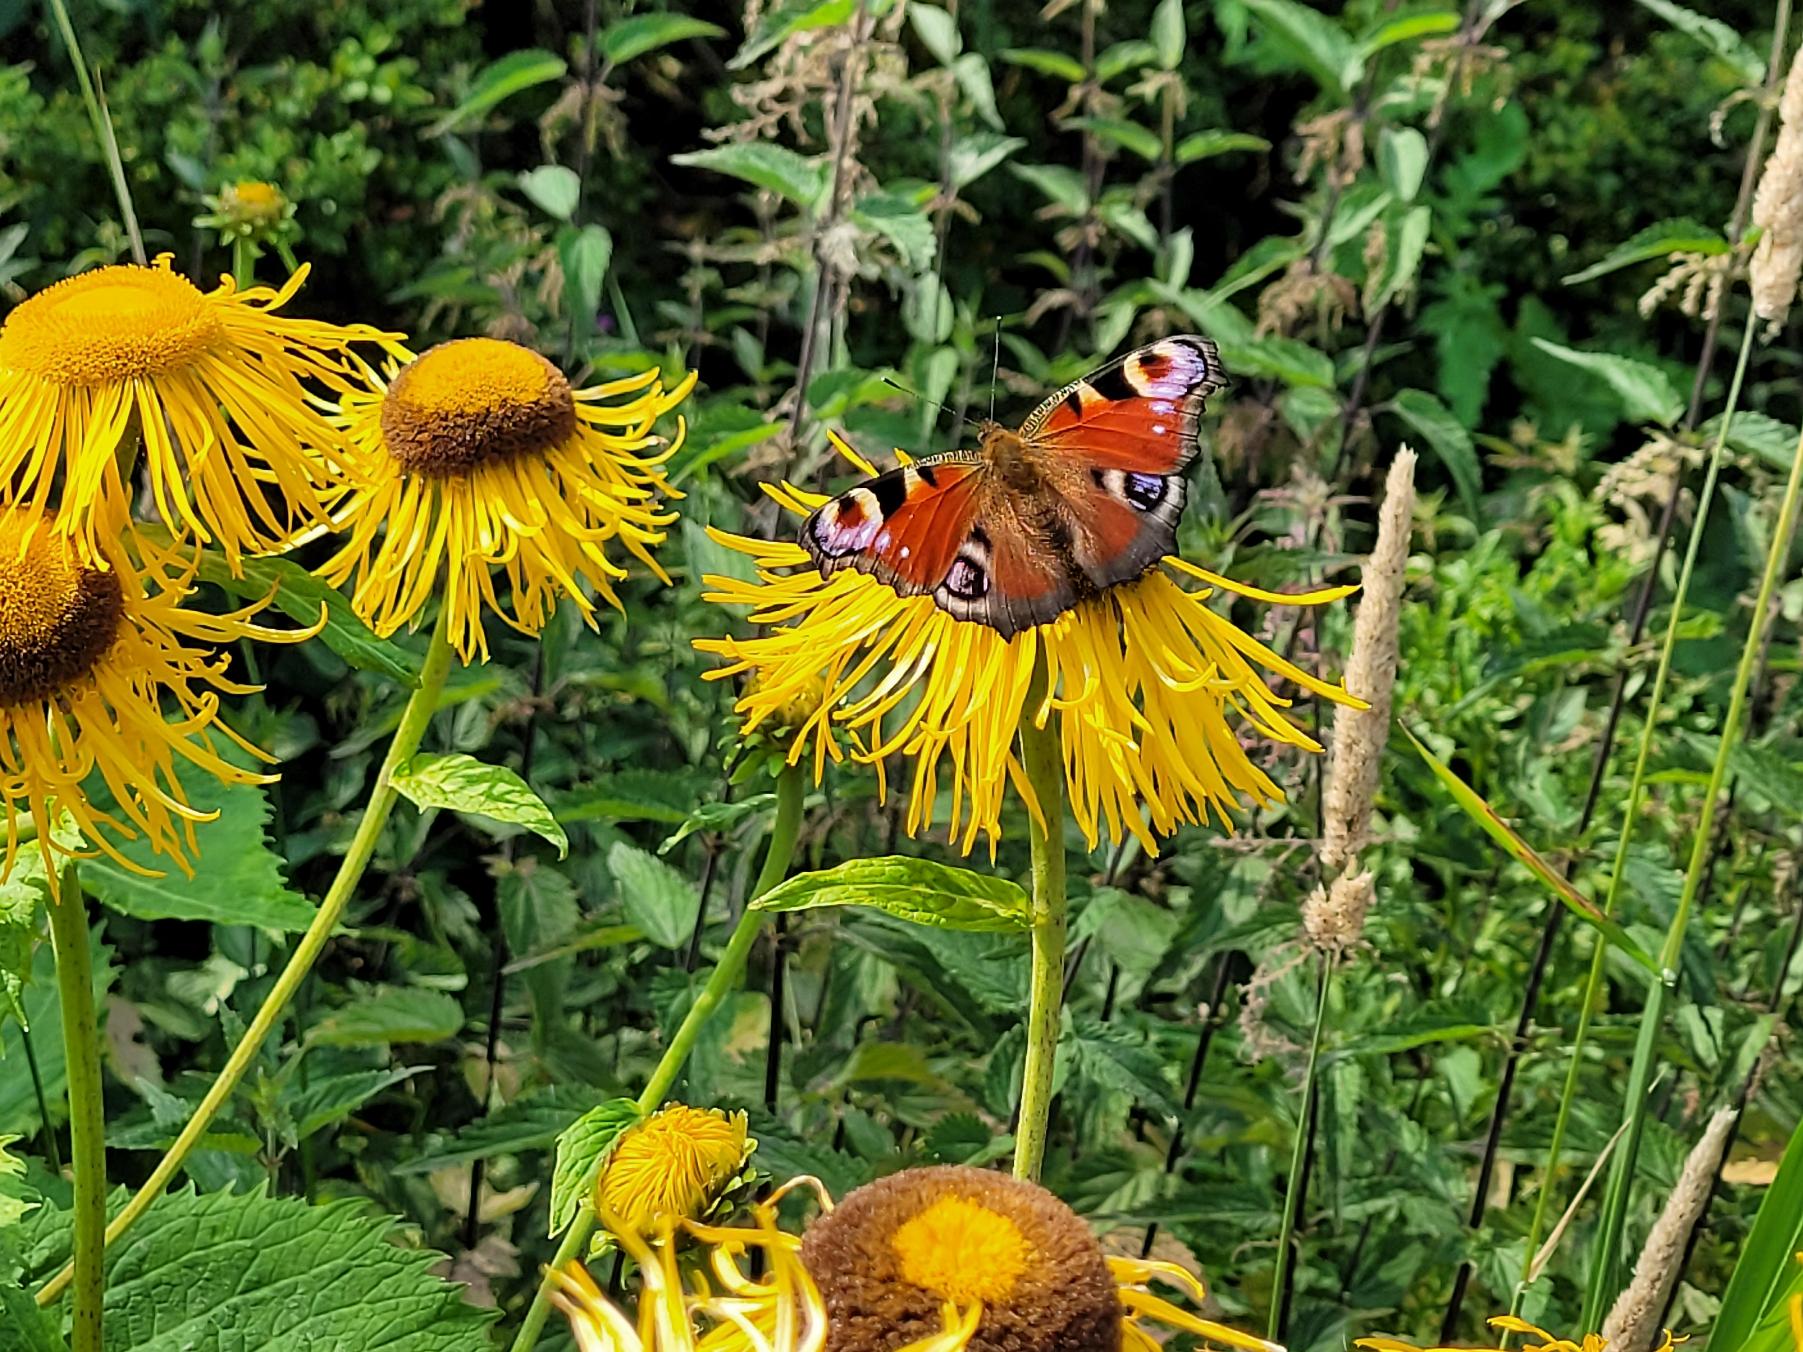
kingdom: Animalia
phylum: Arthropoda
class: Insecta
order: Lepidoptera
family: Nymphalidae
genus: Aglais
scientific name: Aglais io
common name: Dagpåfugleøje
